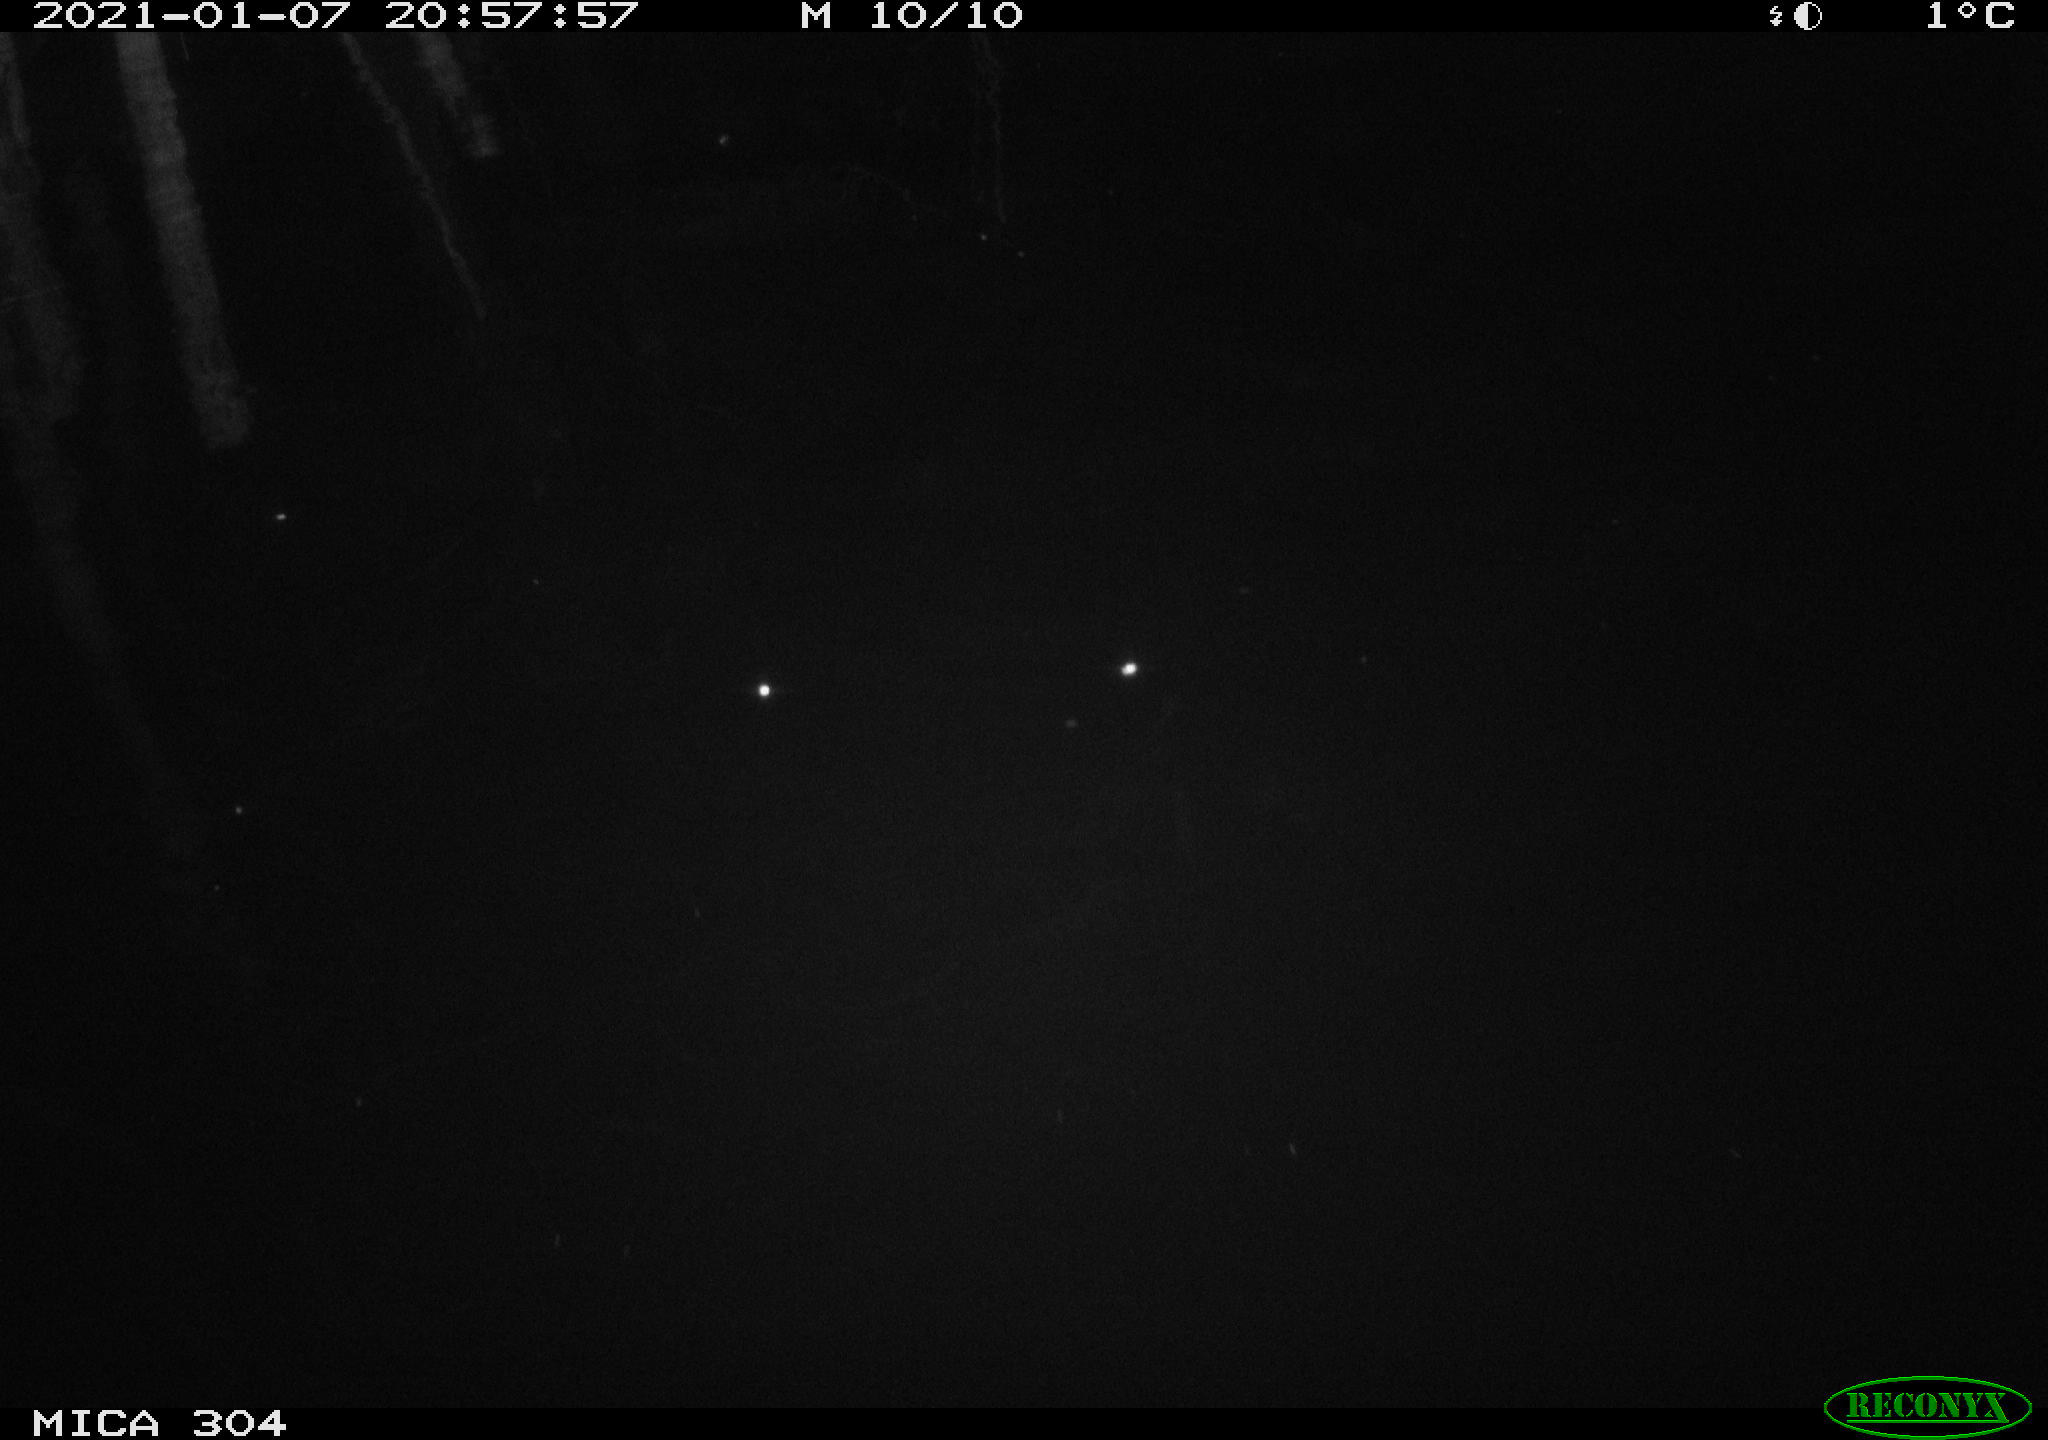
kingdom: Animalia
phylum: Chordata
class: Mammalia
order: Rodentia
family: Muridae
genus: Rattus
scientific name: Rattus norvegicus
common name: Brown rat
